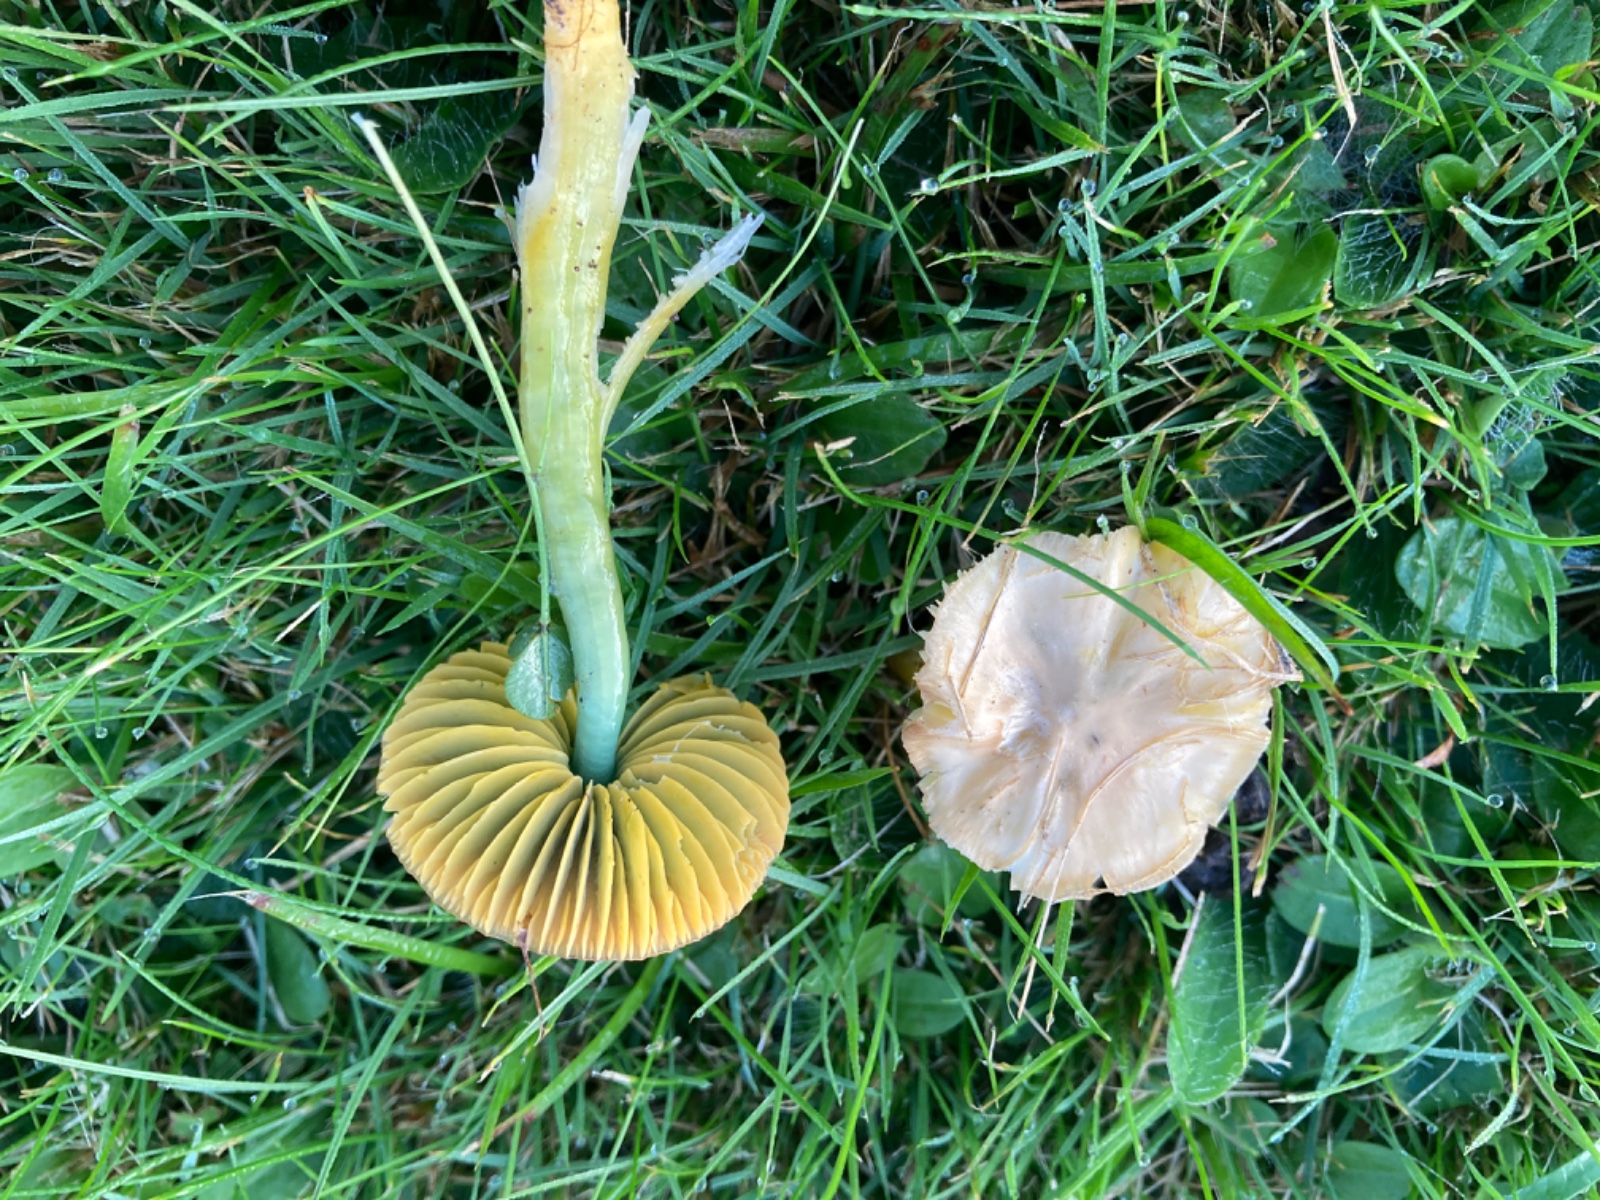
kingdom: Fungi
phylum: Basidiomycota
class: Agaricomycetes
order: Agaricales
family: Hygrophoraceae
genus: Gliophorus
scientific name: Gliophorus psittacinus
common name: papegøje-vokshat
